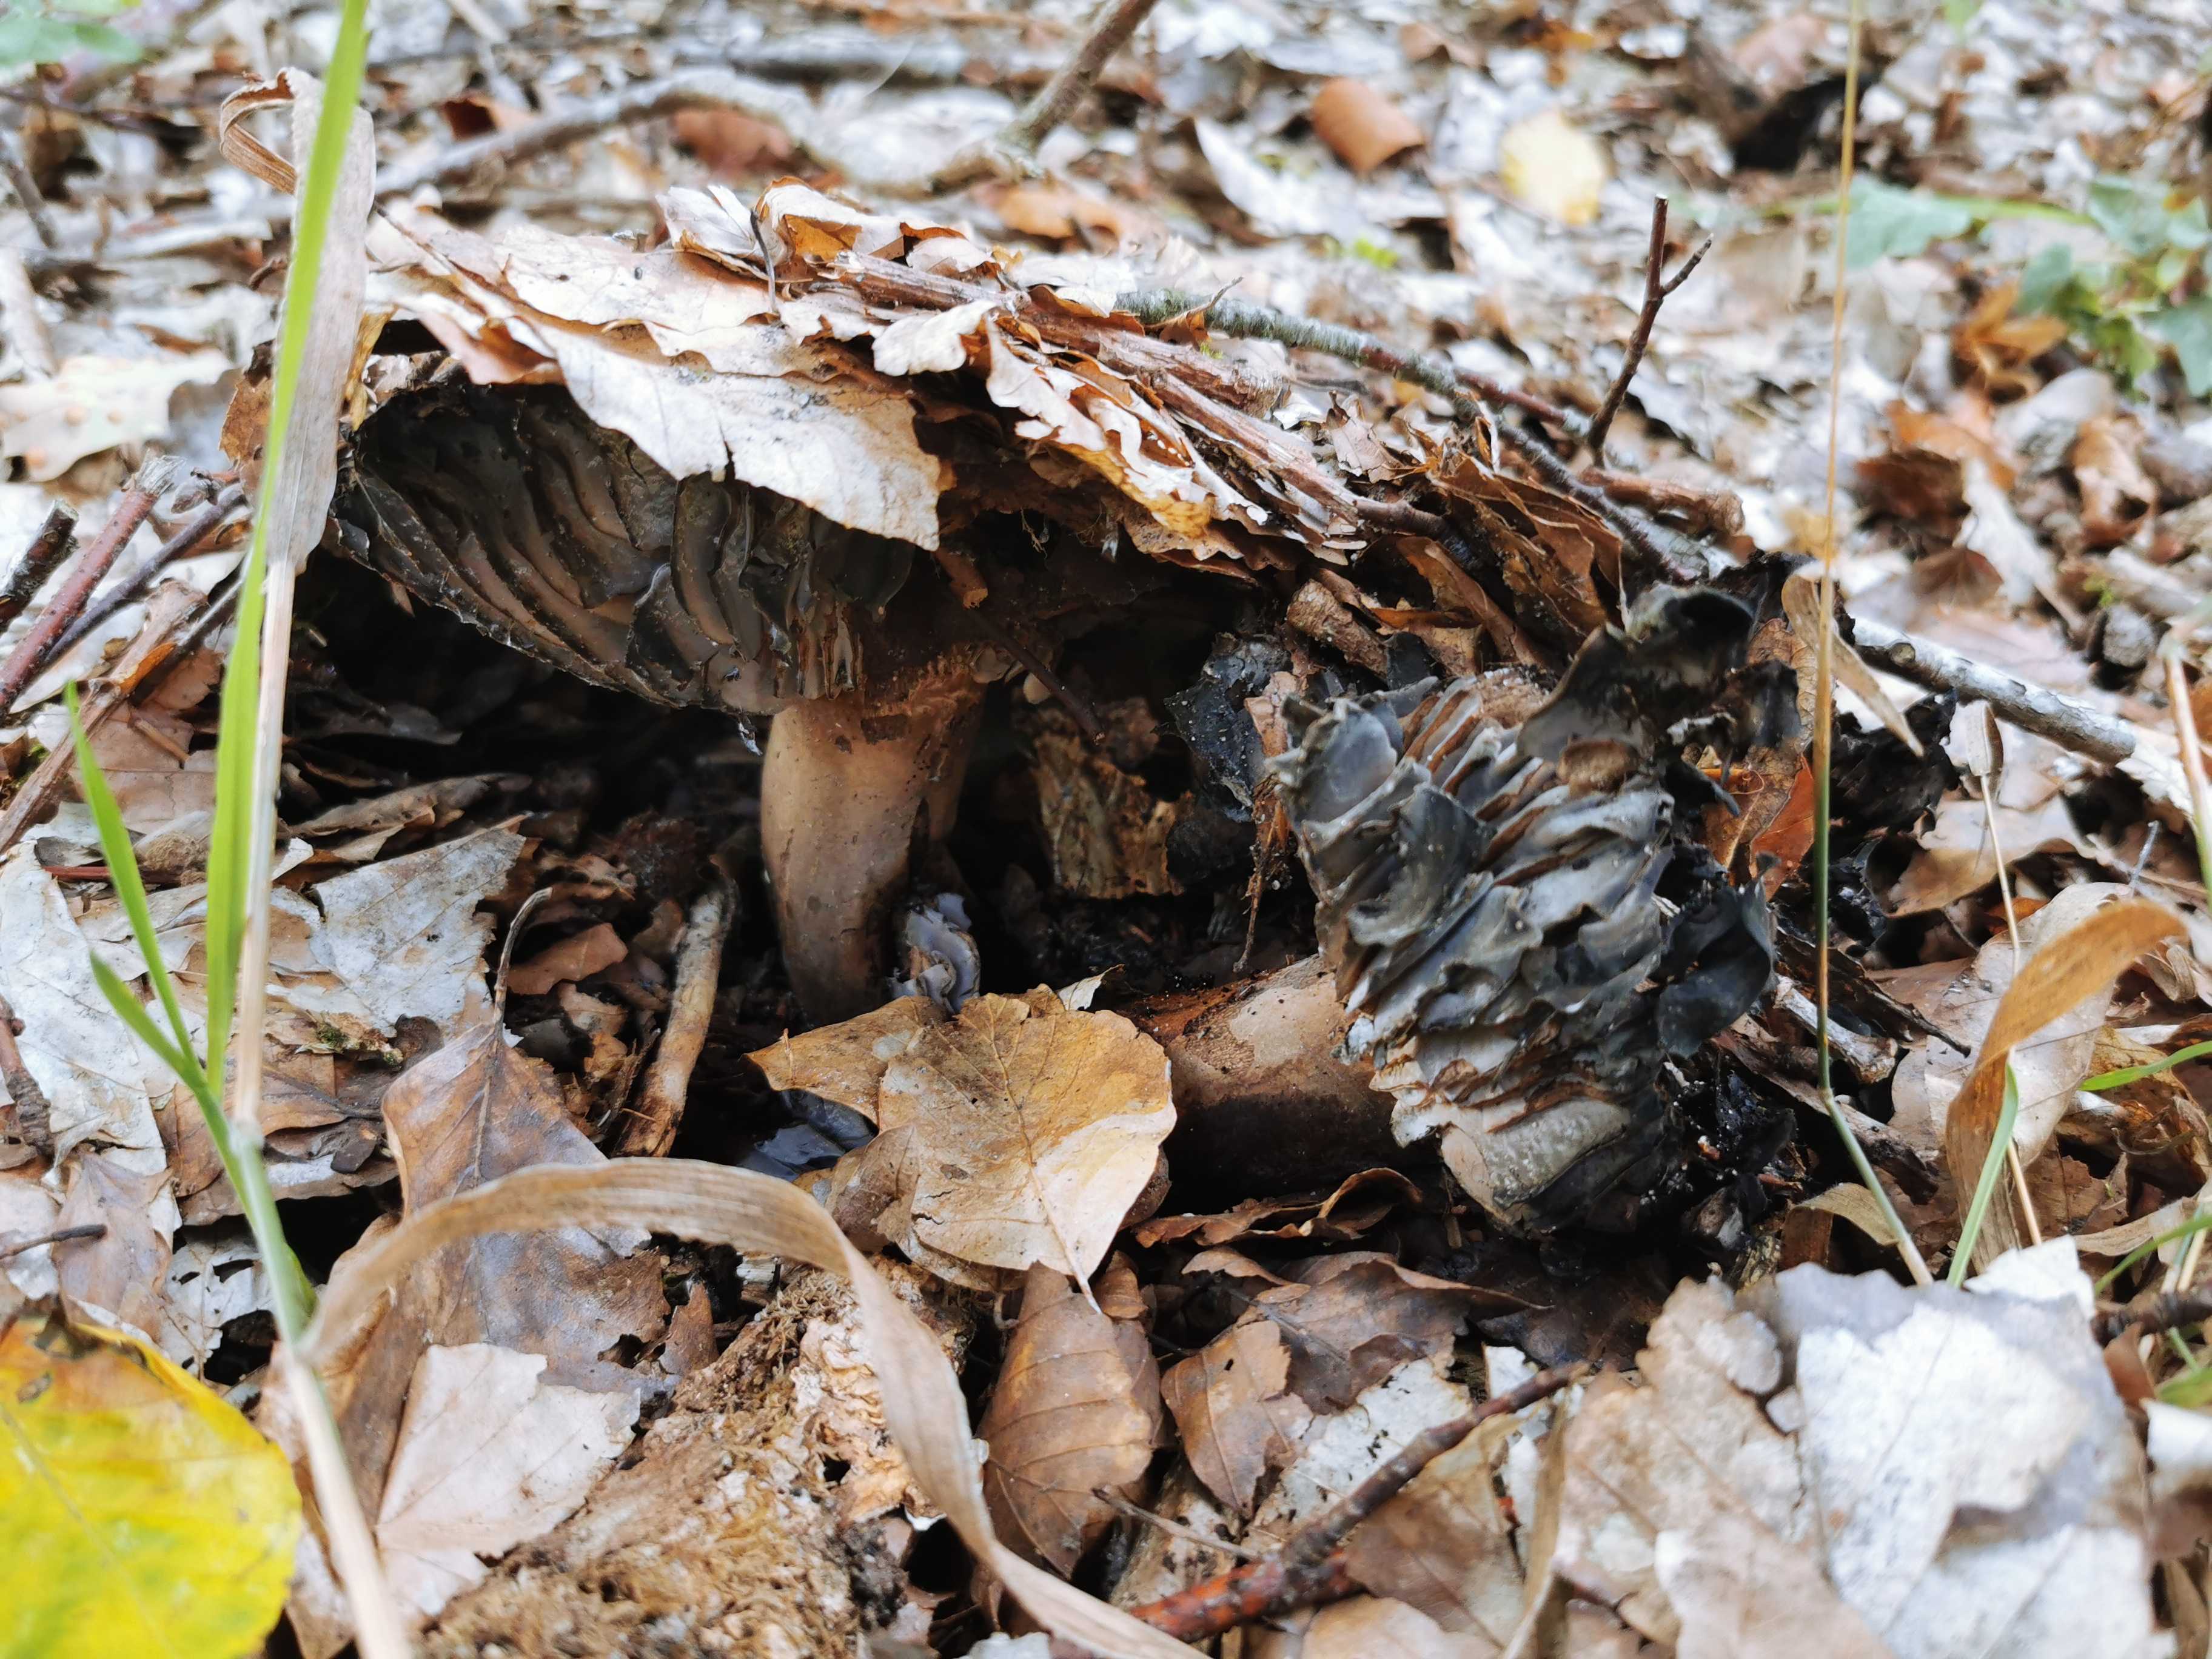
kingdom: Fungi
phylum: Basidiomycota
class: Agaricomycetes
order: Russulales
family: Russulaceae
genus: Russula
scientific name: Russula adusta
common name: sværtende skørhat
